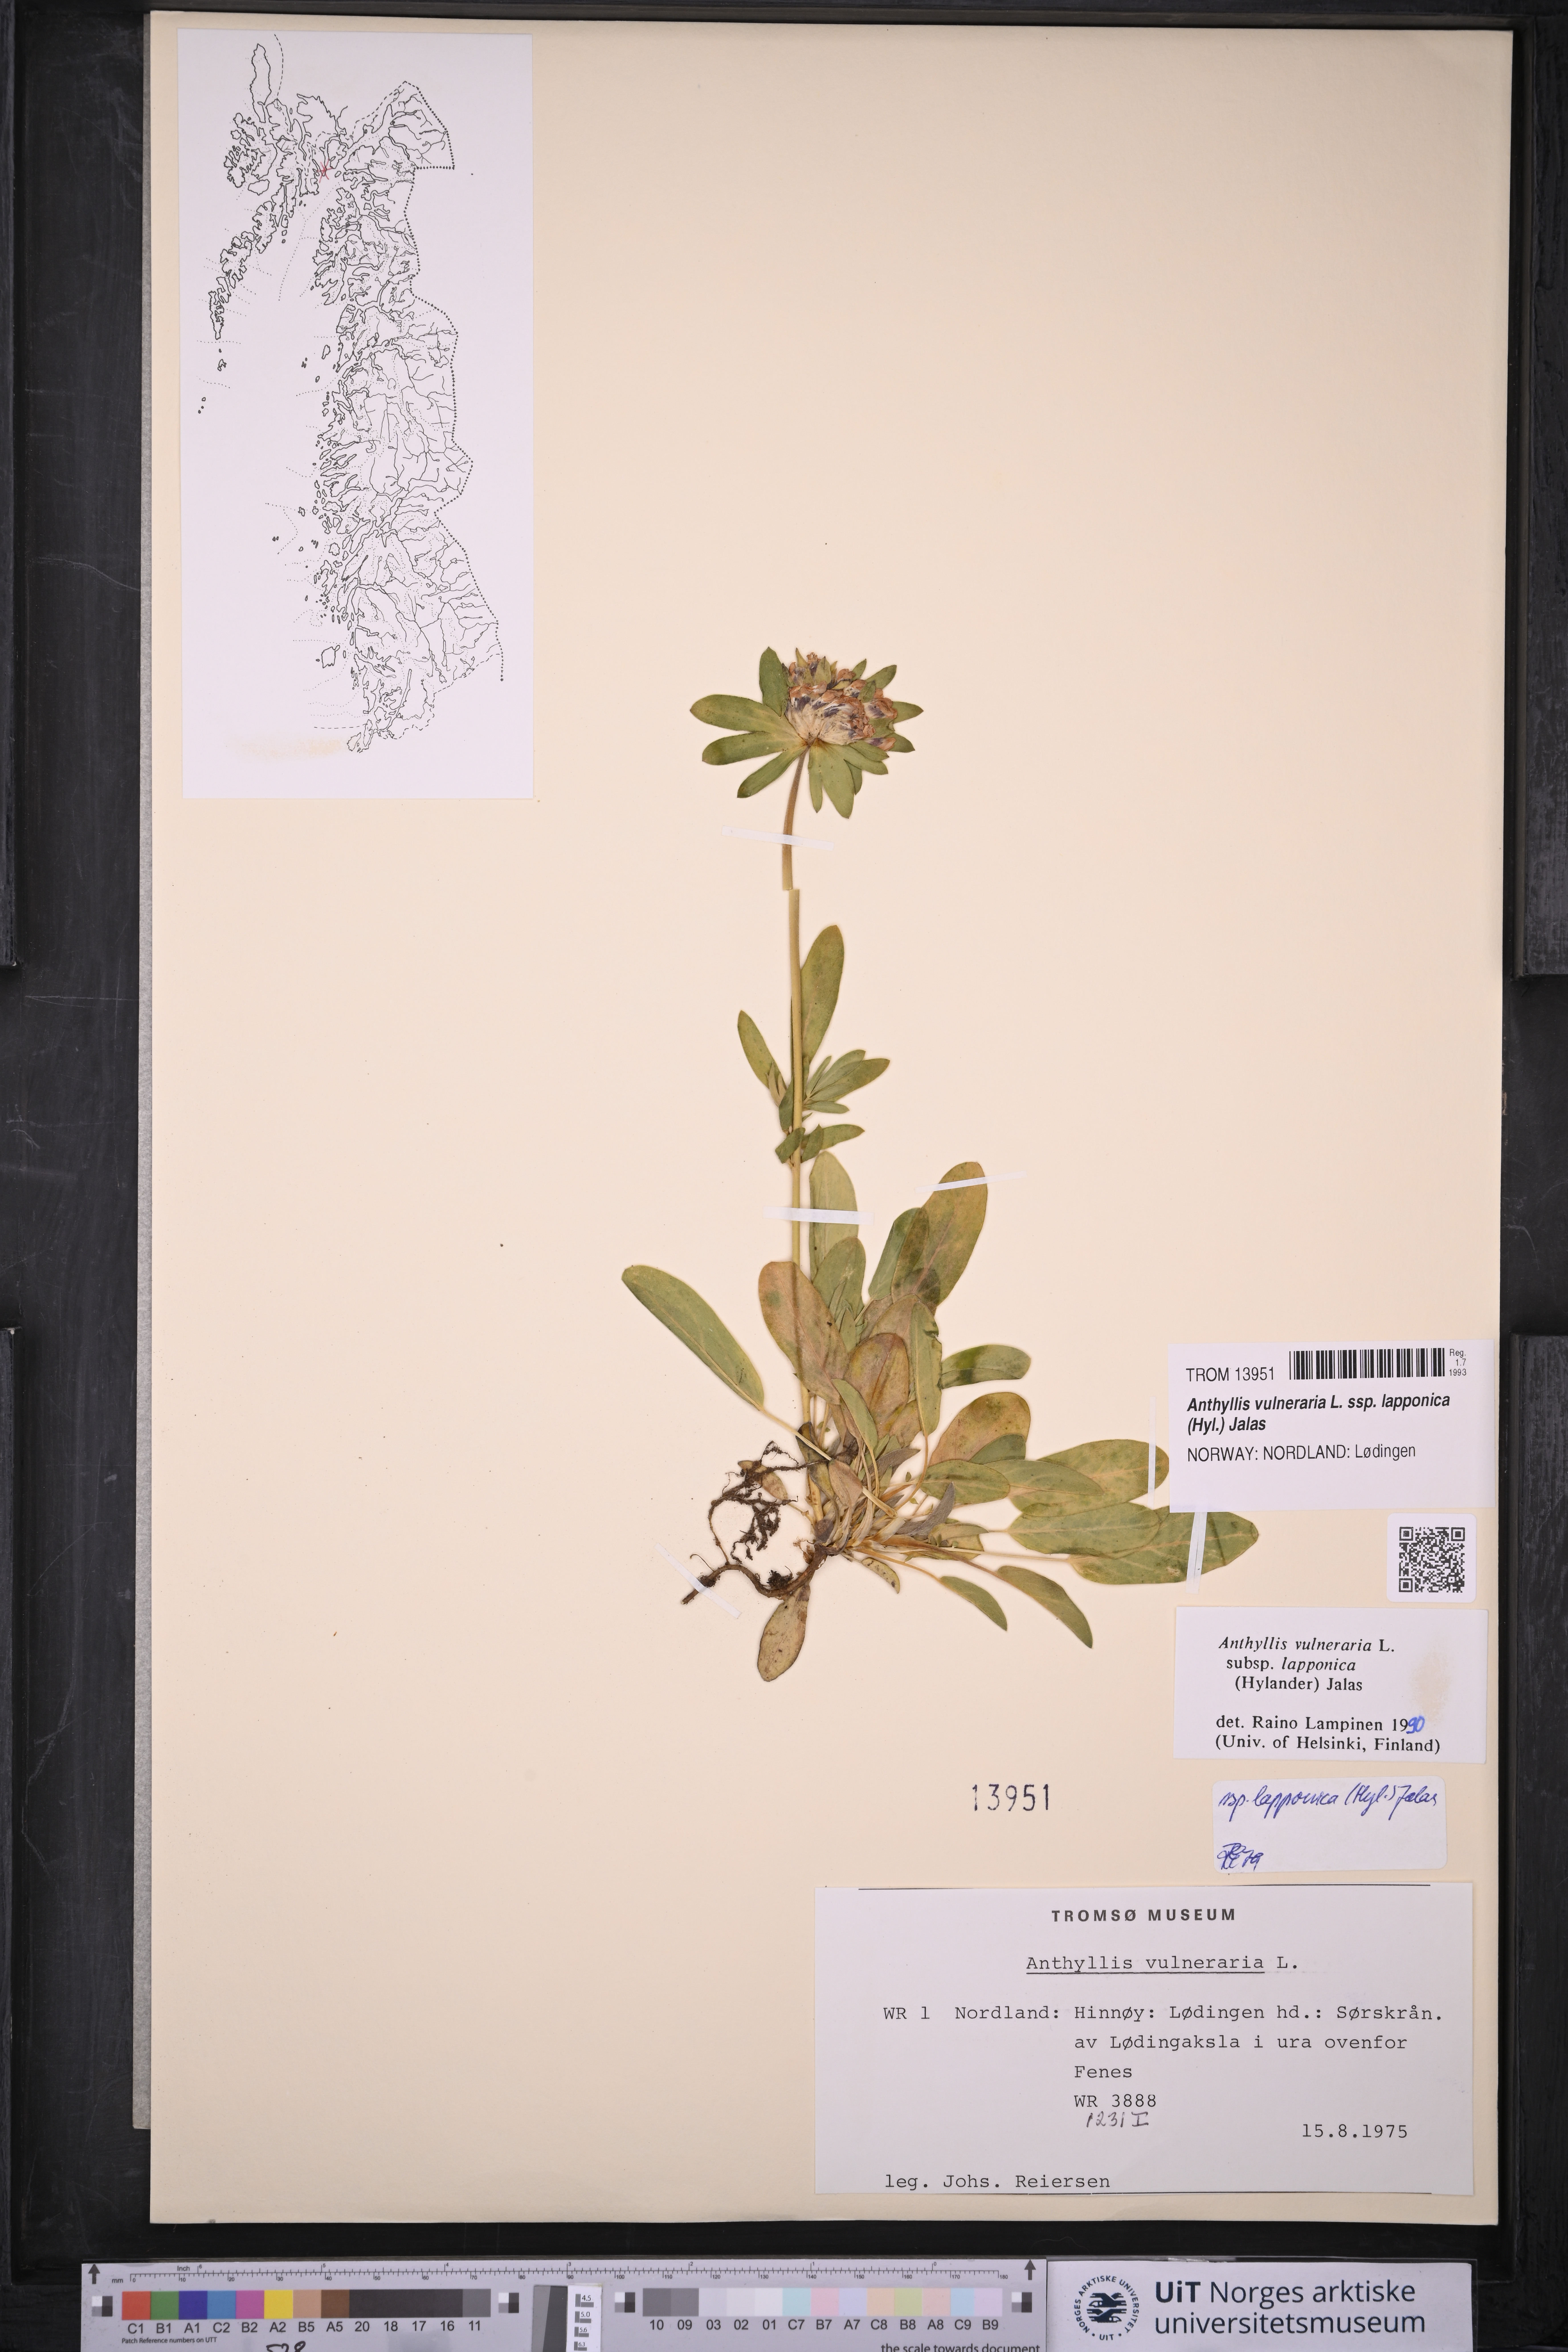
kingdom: Plantae
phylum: Tracheophyta
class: Magnoliopsida
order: Fabales
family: Fabaceae
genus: Anthyllis
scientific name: Anthyllis vulneraria
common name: Kidney vetch
